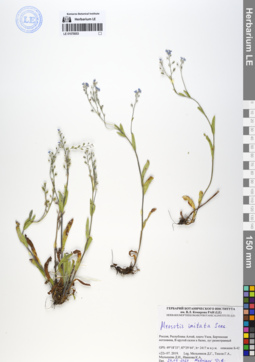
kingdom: Plantae
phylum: Tracheophyta
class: Magnoliopsida
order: Boraginales
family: Boraginaceae
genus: Myosotis
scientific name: Myosotis imitata
